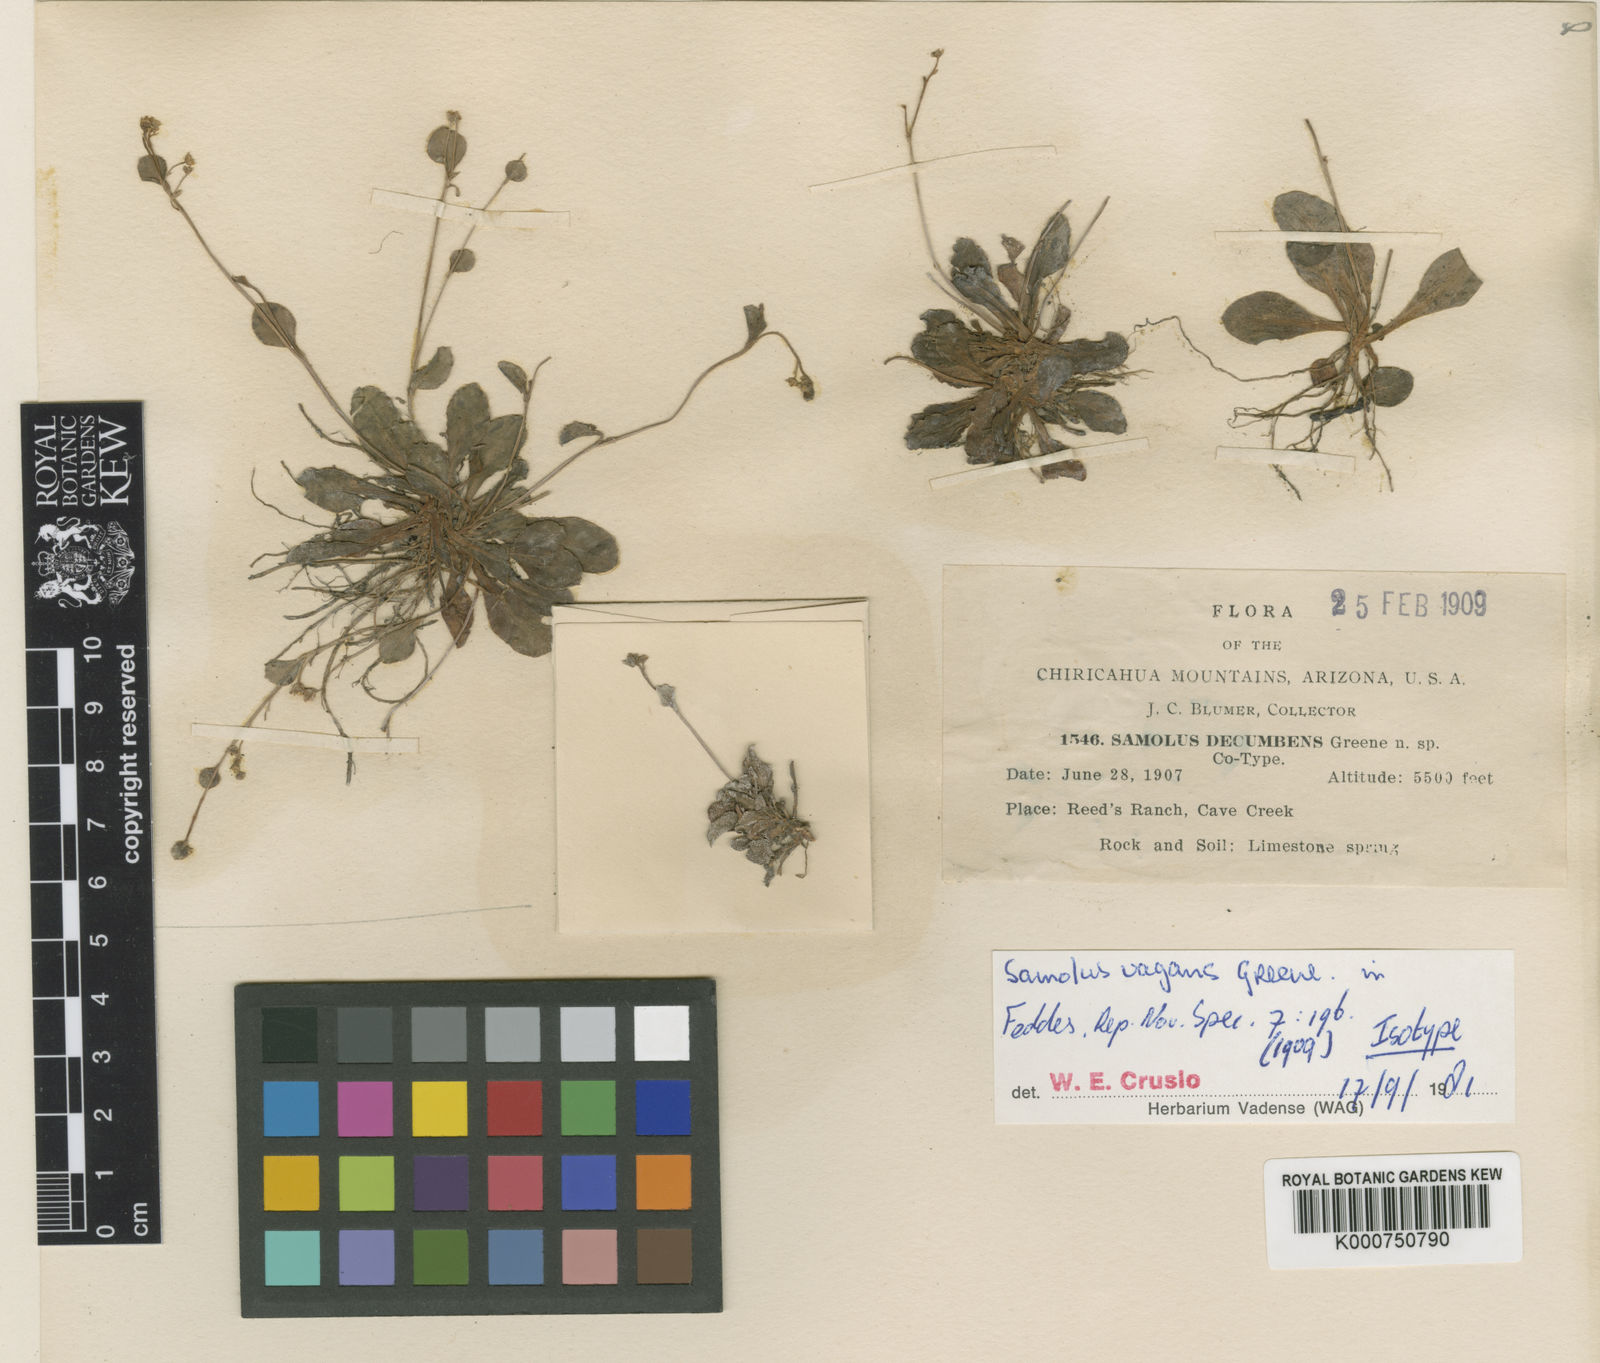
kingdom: Plantae
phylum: Tracheophyta
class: Magnoliopsida
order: Ericales
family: Primulaceae
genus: Samolus
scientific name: Samolus
